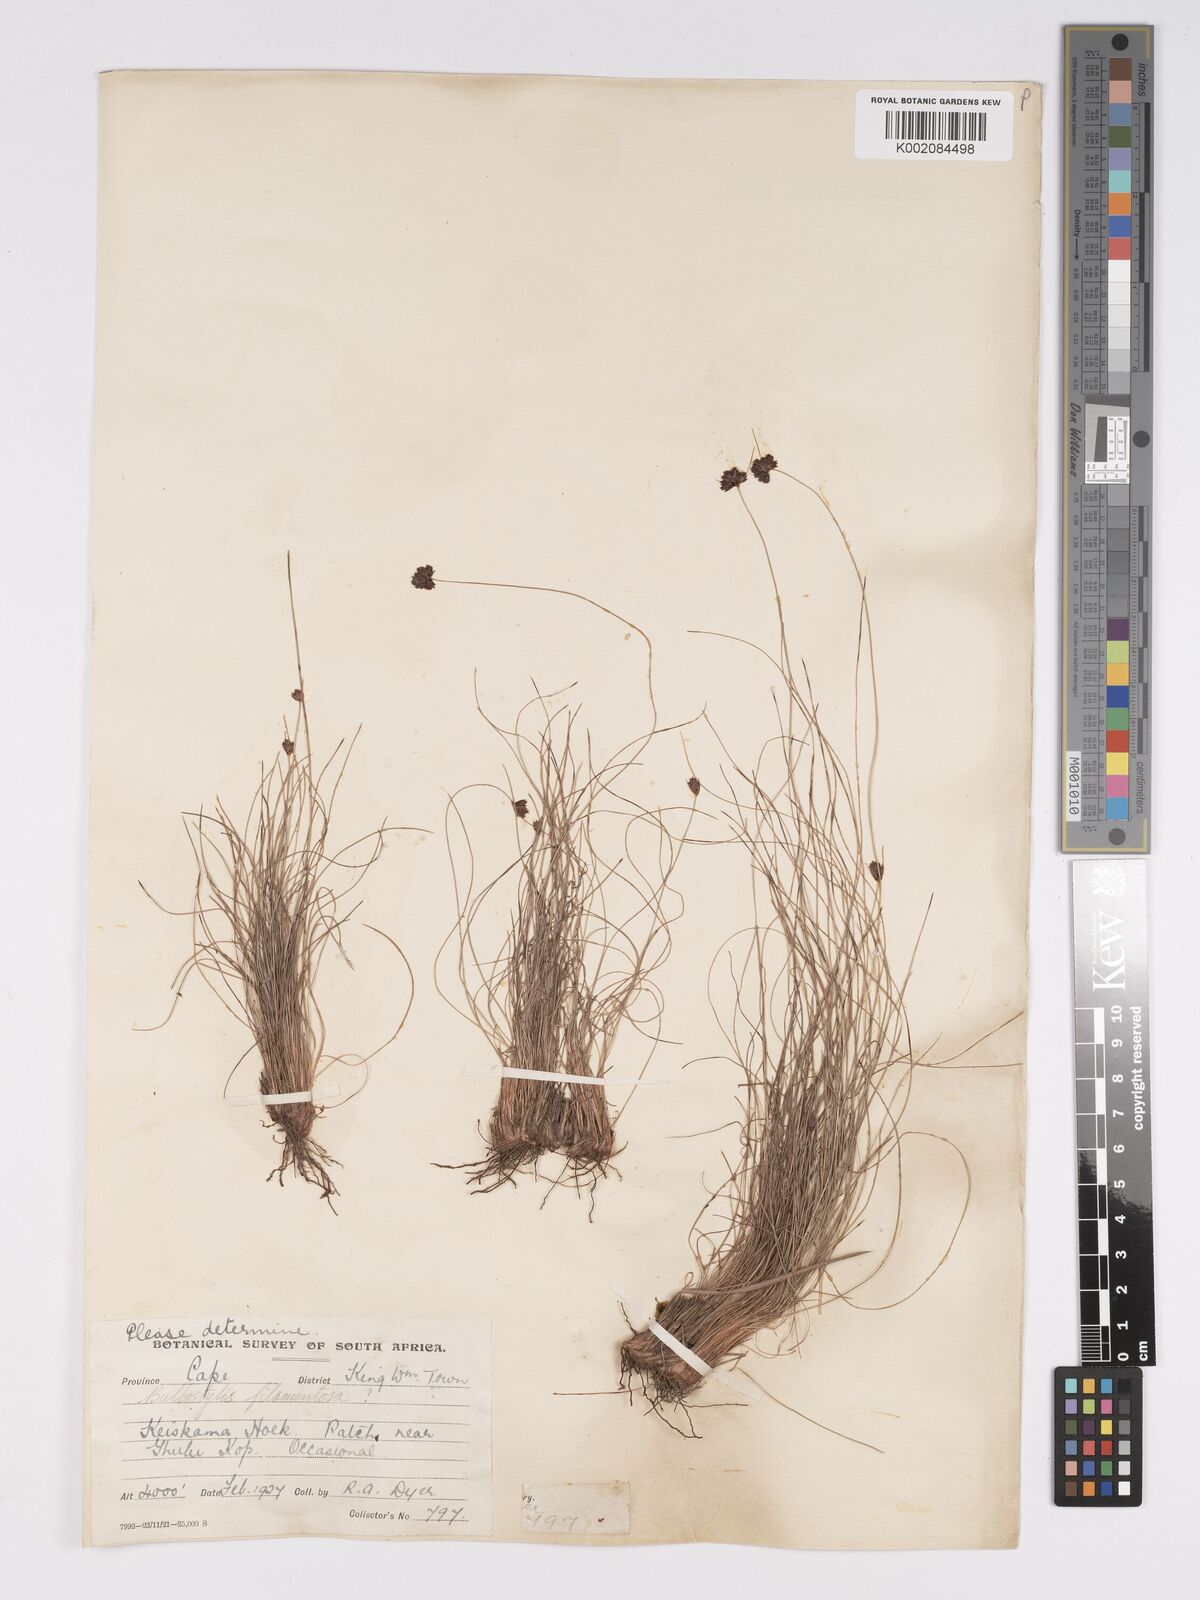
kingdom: Plantae
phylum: Tracheophyta
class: Liliopsida
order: Poales
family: Cyperaceae
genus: Bulbostylis
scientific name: Bulbostylis filamentosa
